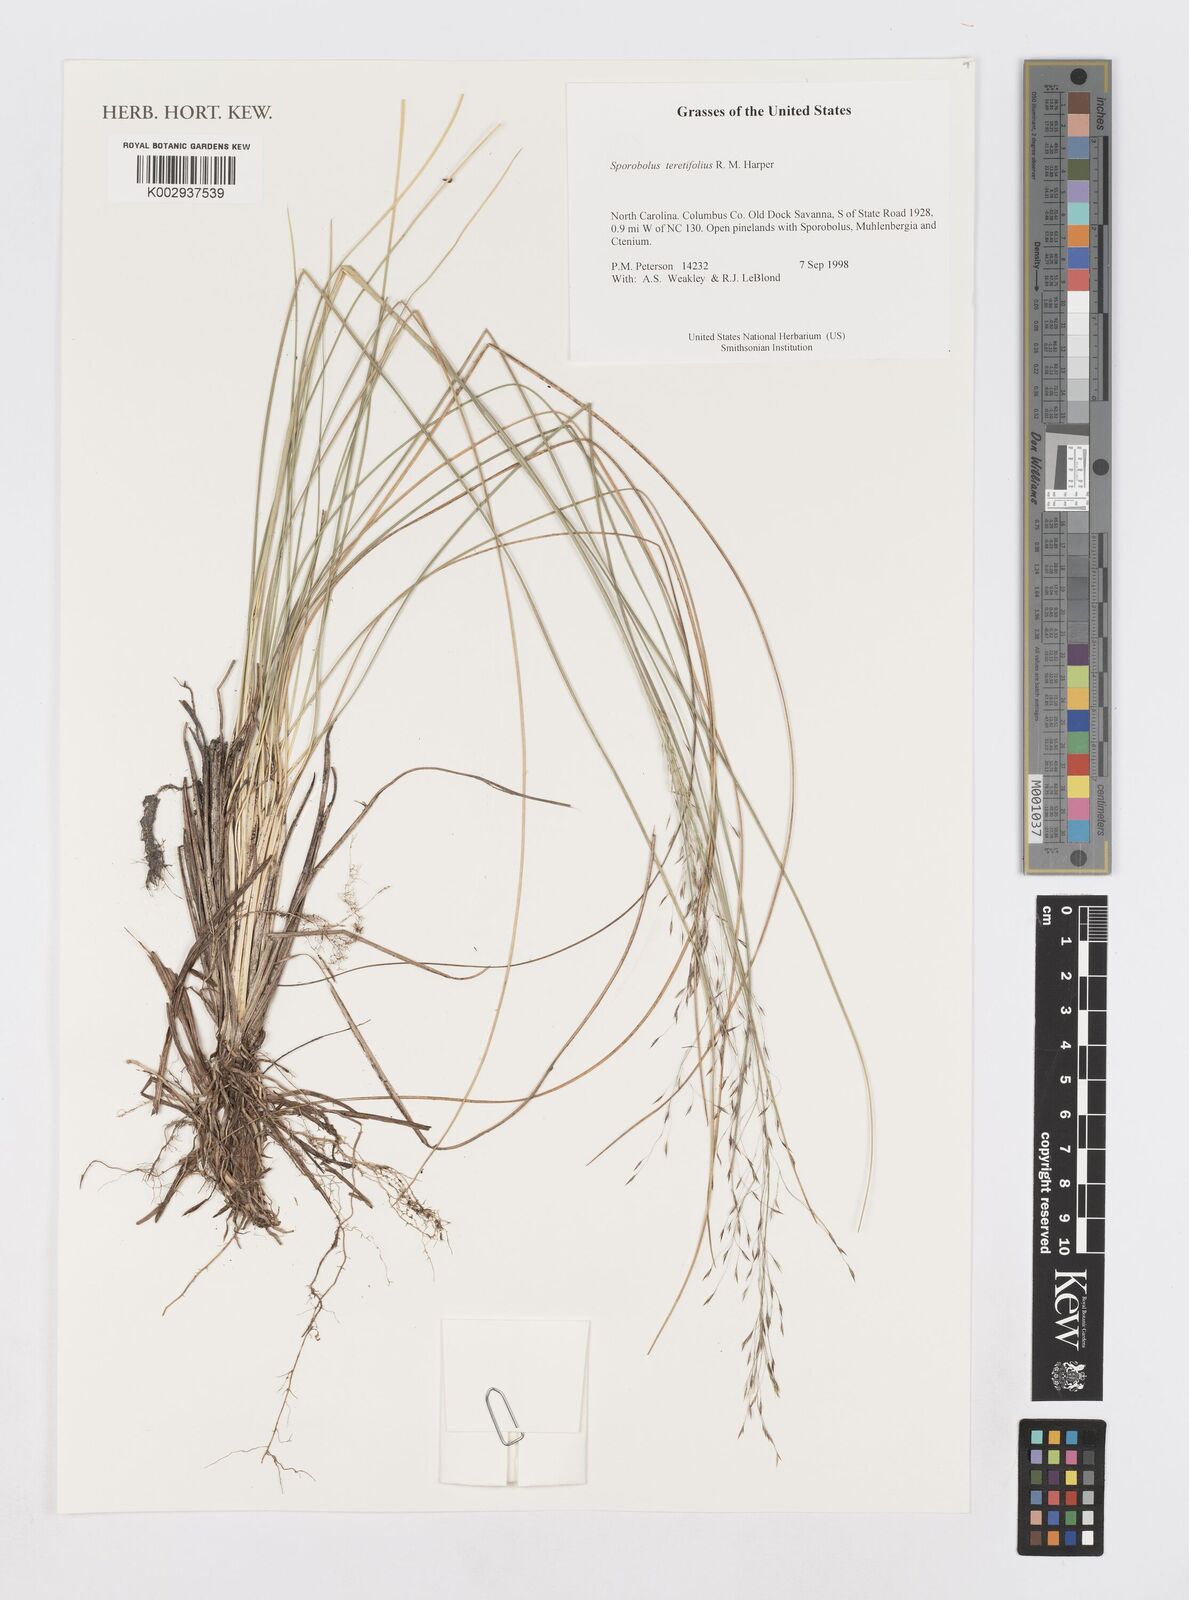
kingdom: Plantae
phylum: Tracheophyta
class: Liliopsida
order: Poales
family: Poaceae
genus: Sporobolus
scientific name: Sporobolus teretifolius
